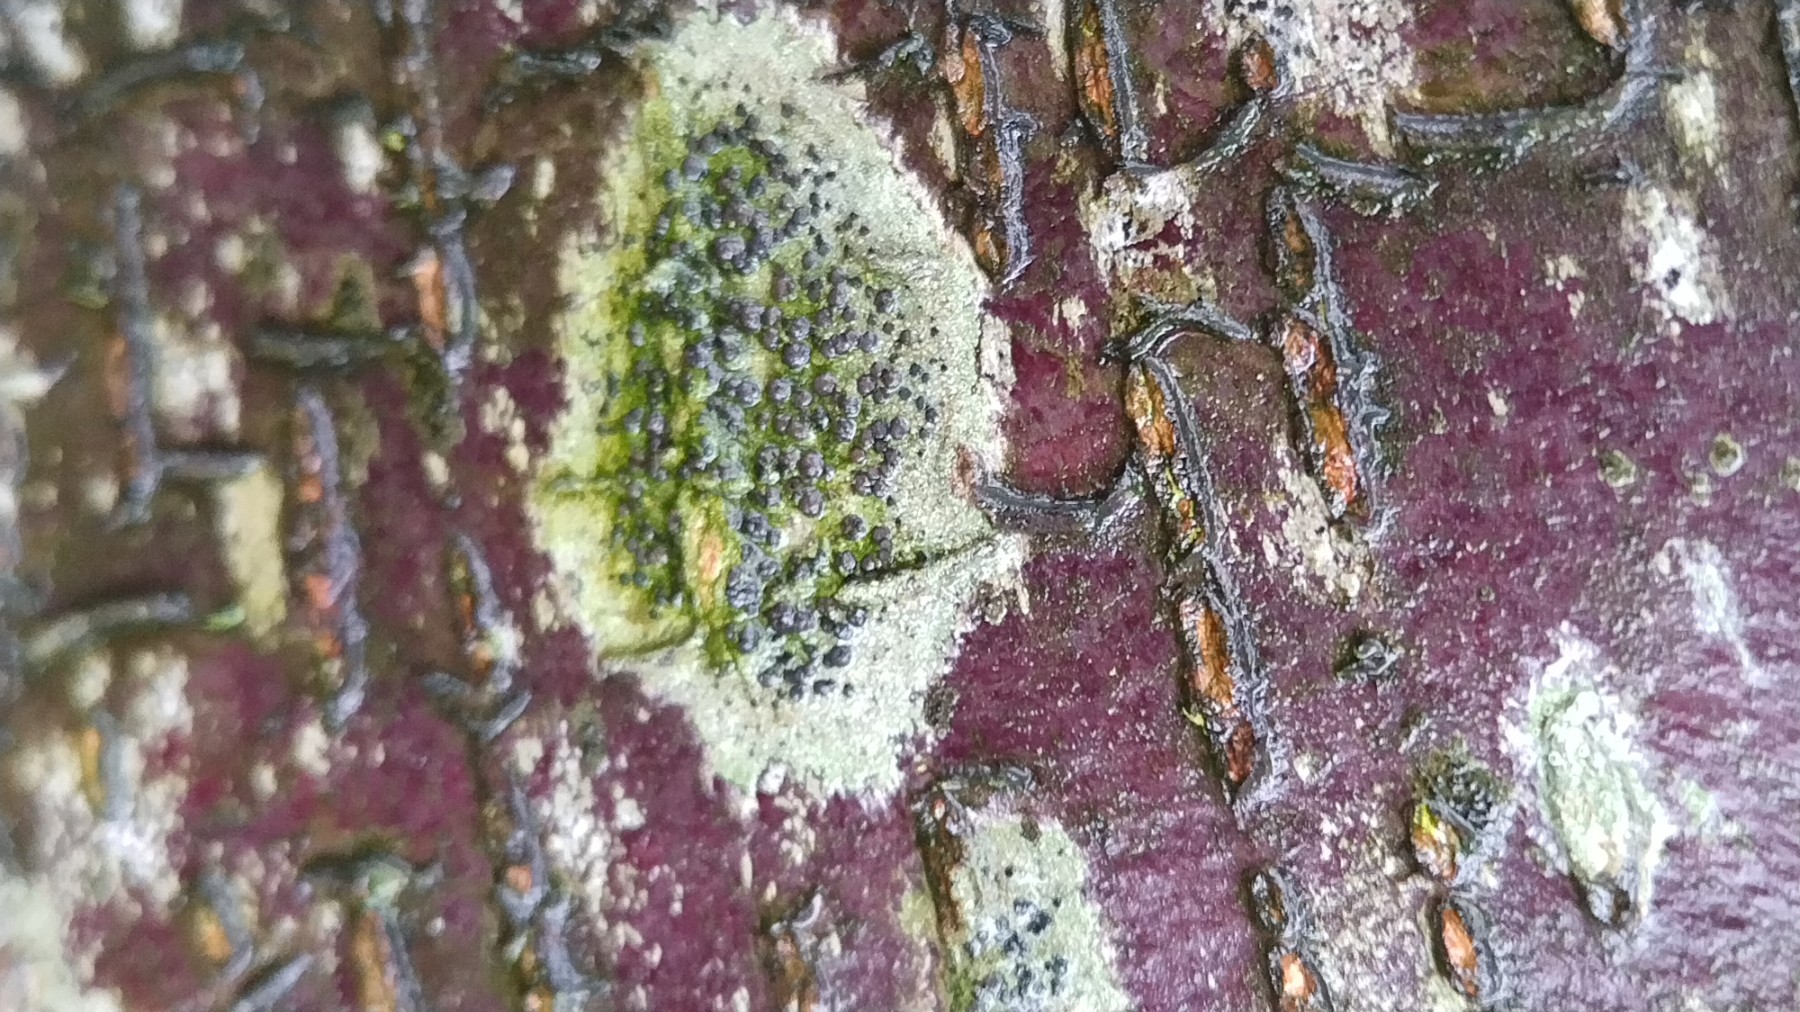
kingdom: Fungi
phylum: Ascomycota
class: Lecanoromycetes
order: Lecanorales
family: Lecanoraceae
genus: Lecidella
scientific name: Lecidella elaeochroma
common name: grågrøn skivelav
